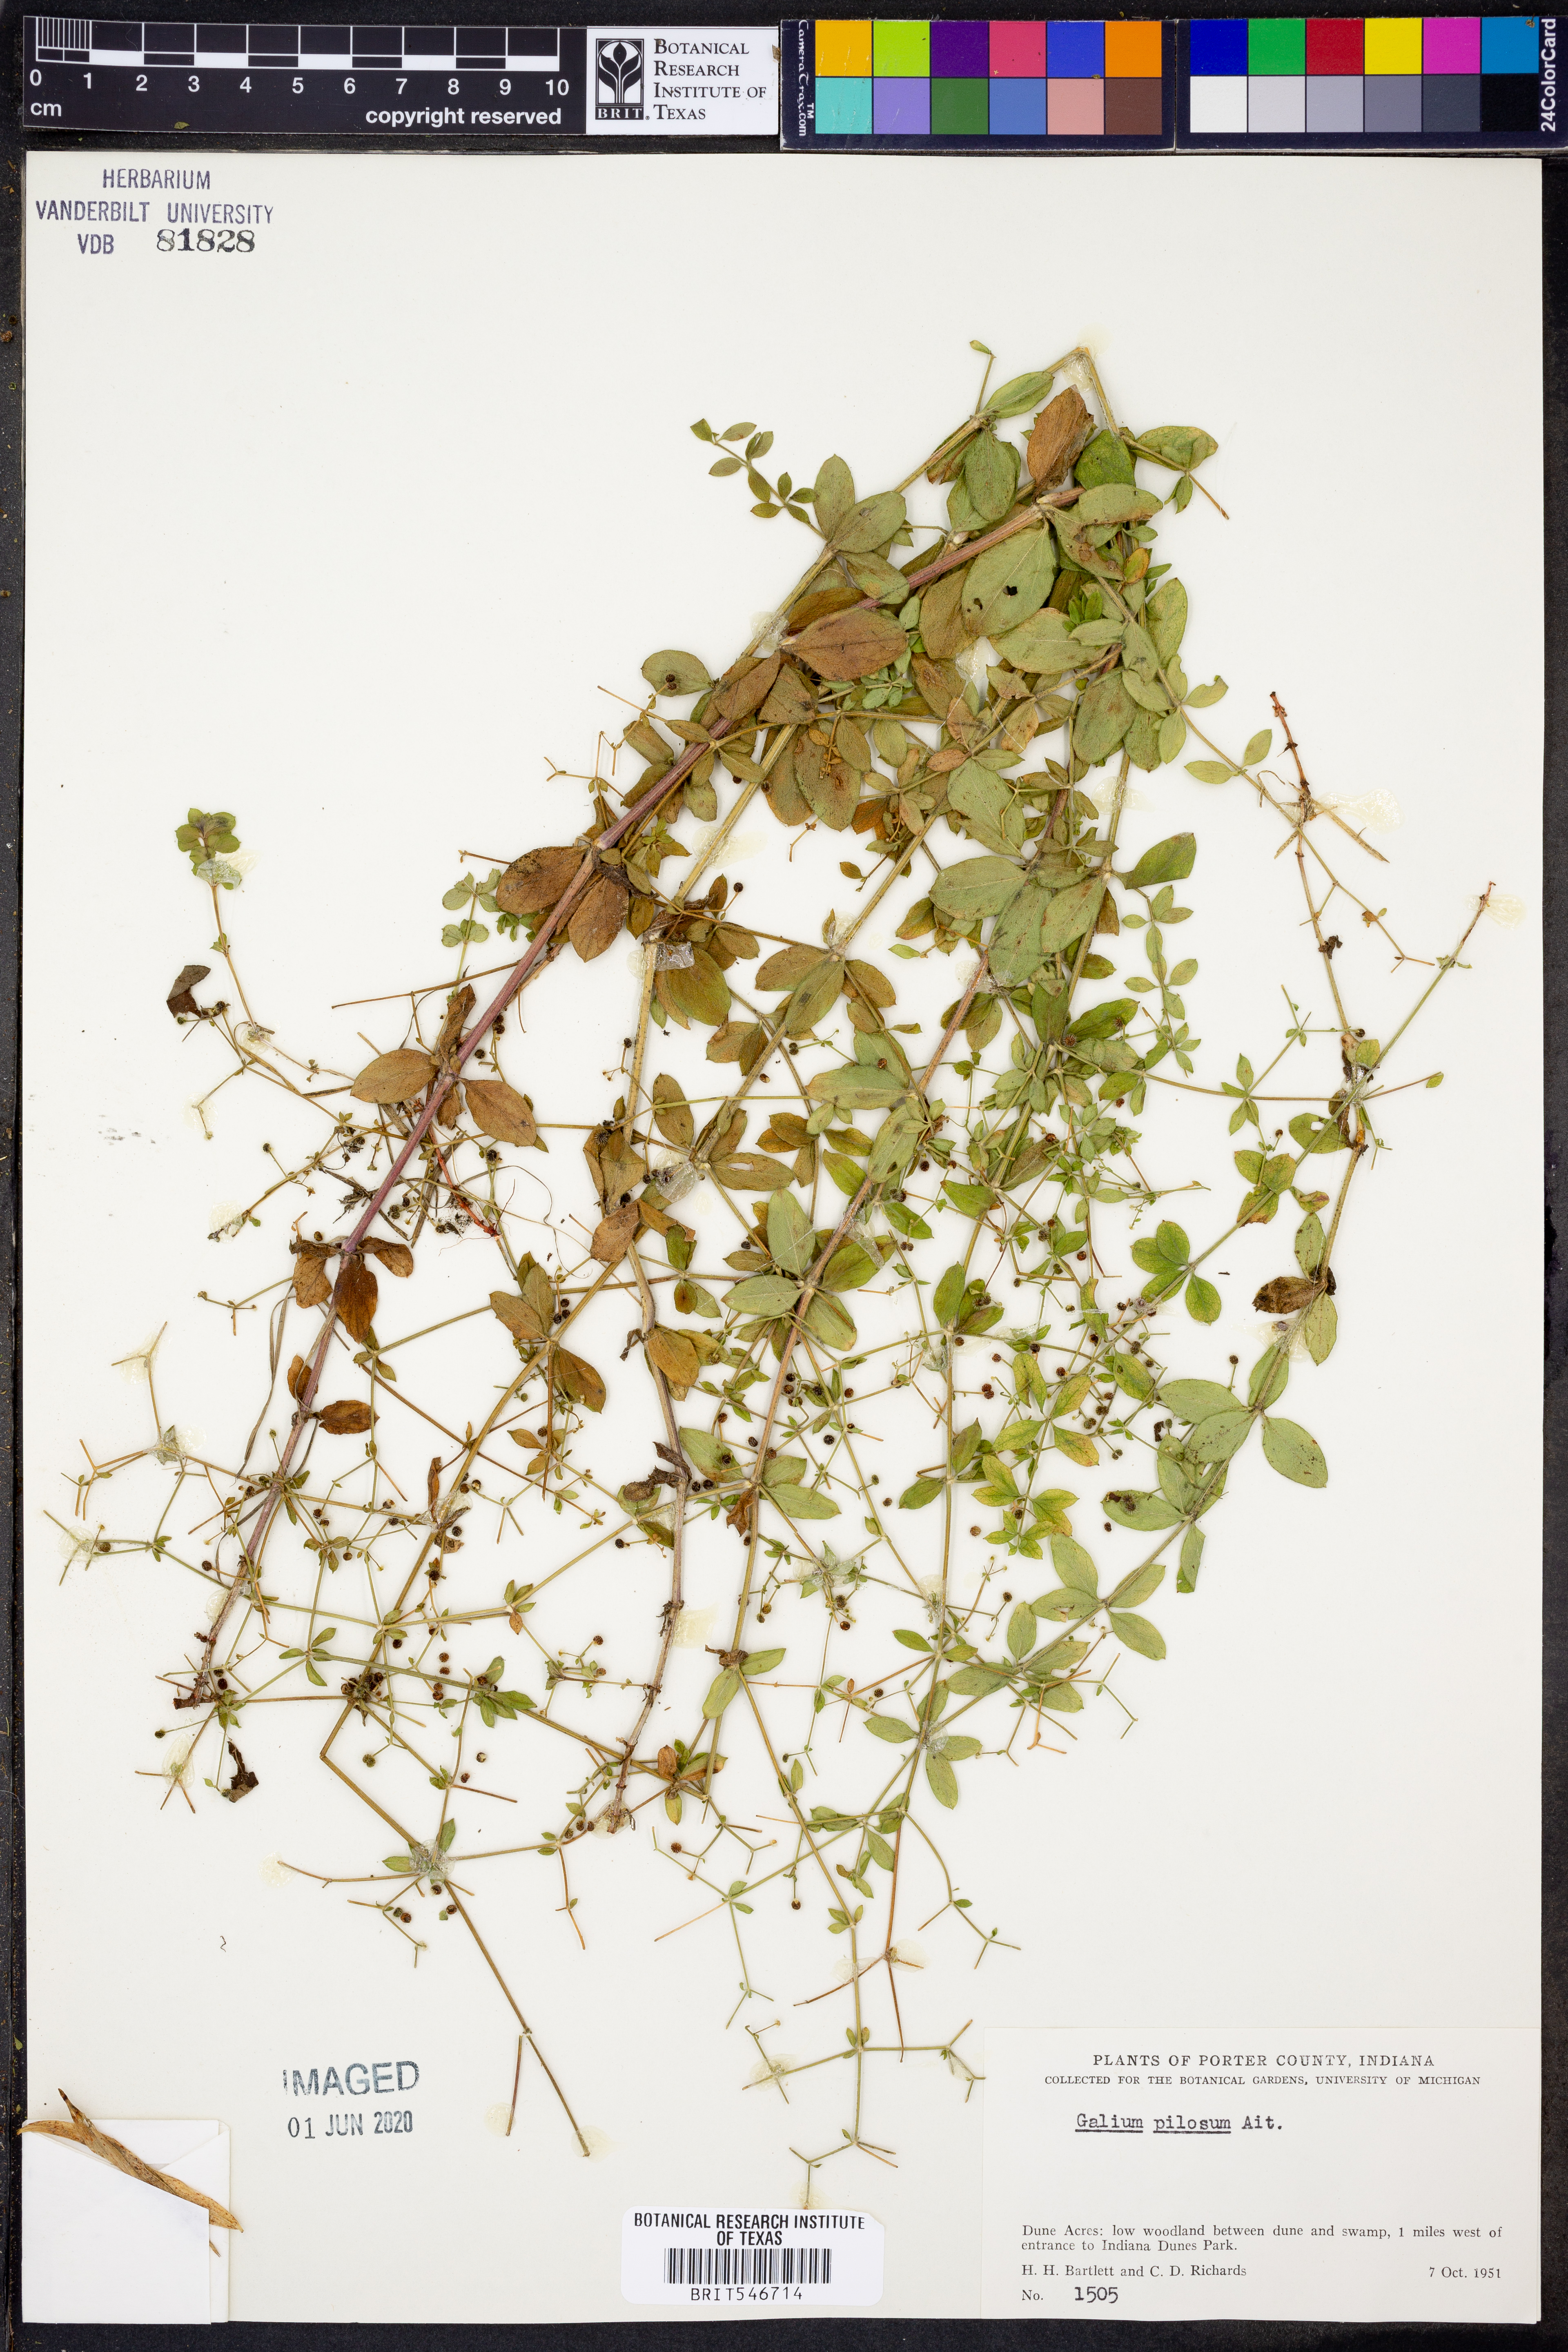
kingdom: Plantae
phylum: Tracheophyta
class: Magnoliopsida
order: Gentianales
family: Rubiaceae
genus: Galium
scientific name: Galium pilosum
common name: Hairy bedstraw
